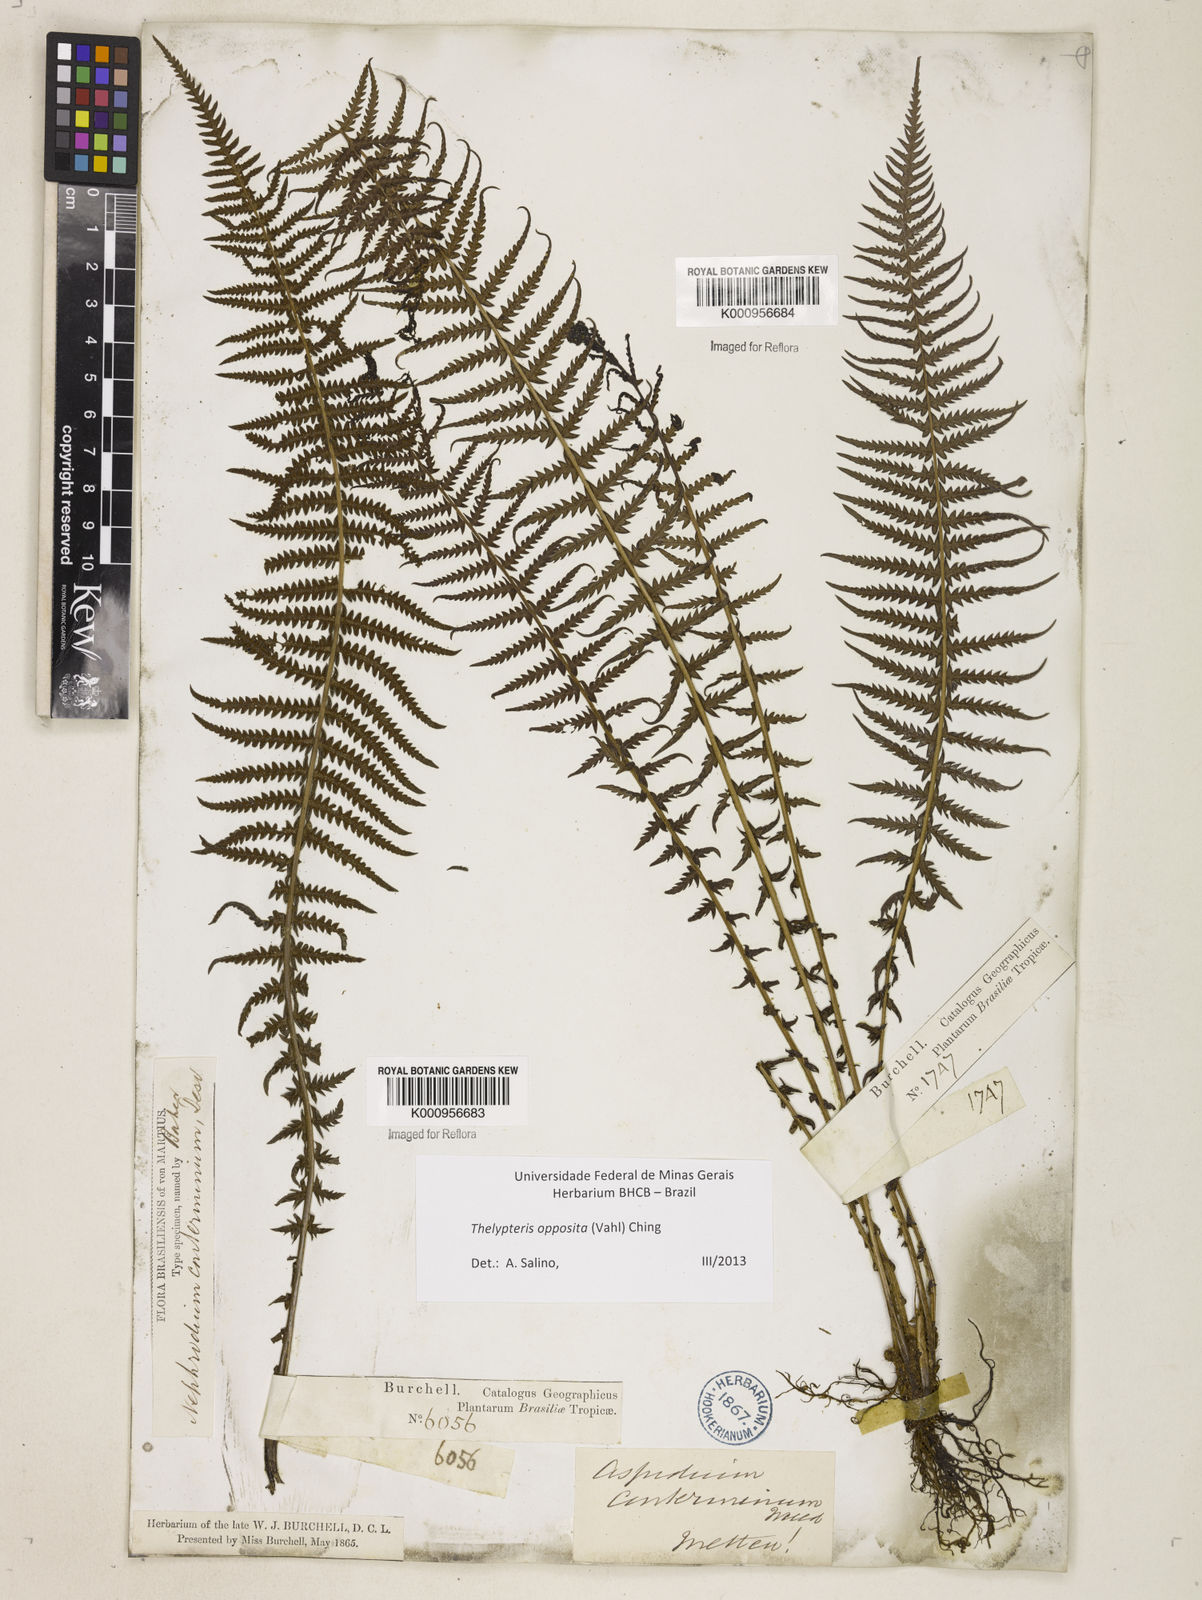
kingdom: Plantae
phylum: Tracheophyta
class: Polypodiopsida
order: Polypodiales
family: Thelypteridaceae
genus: Amauropelta
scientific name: Amauropelta opposita
